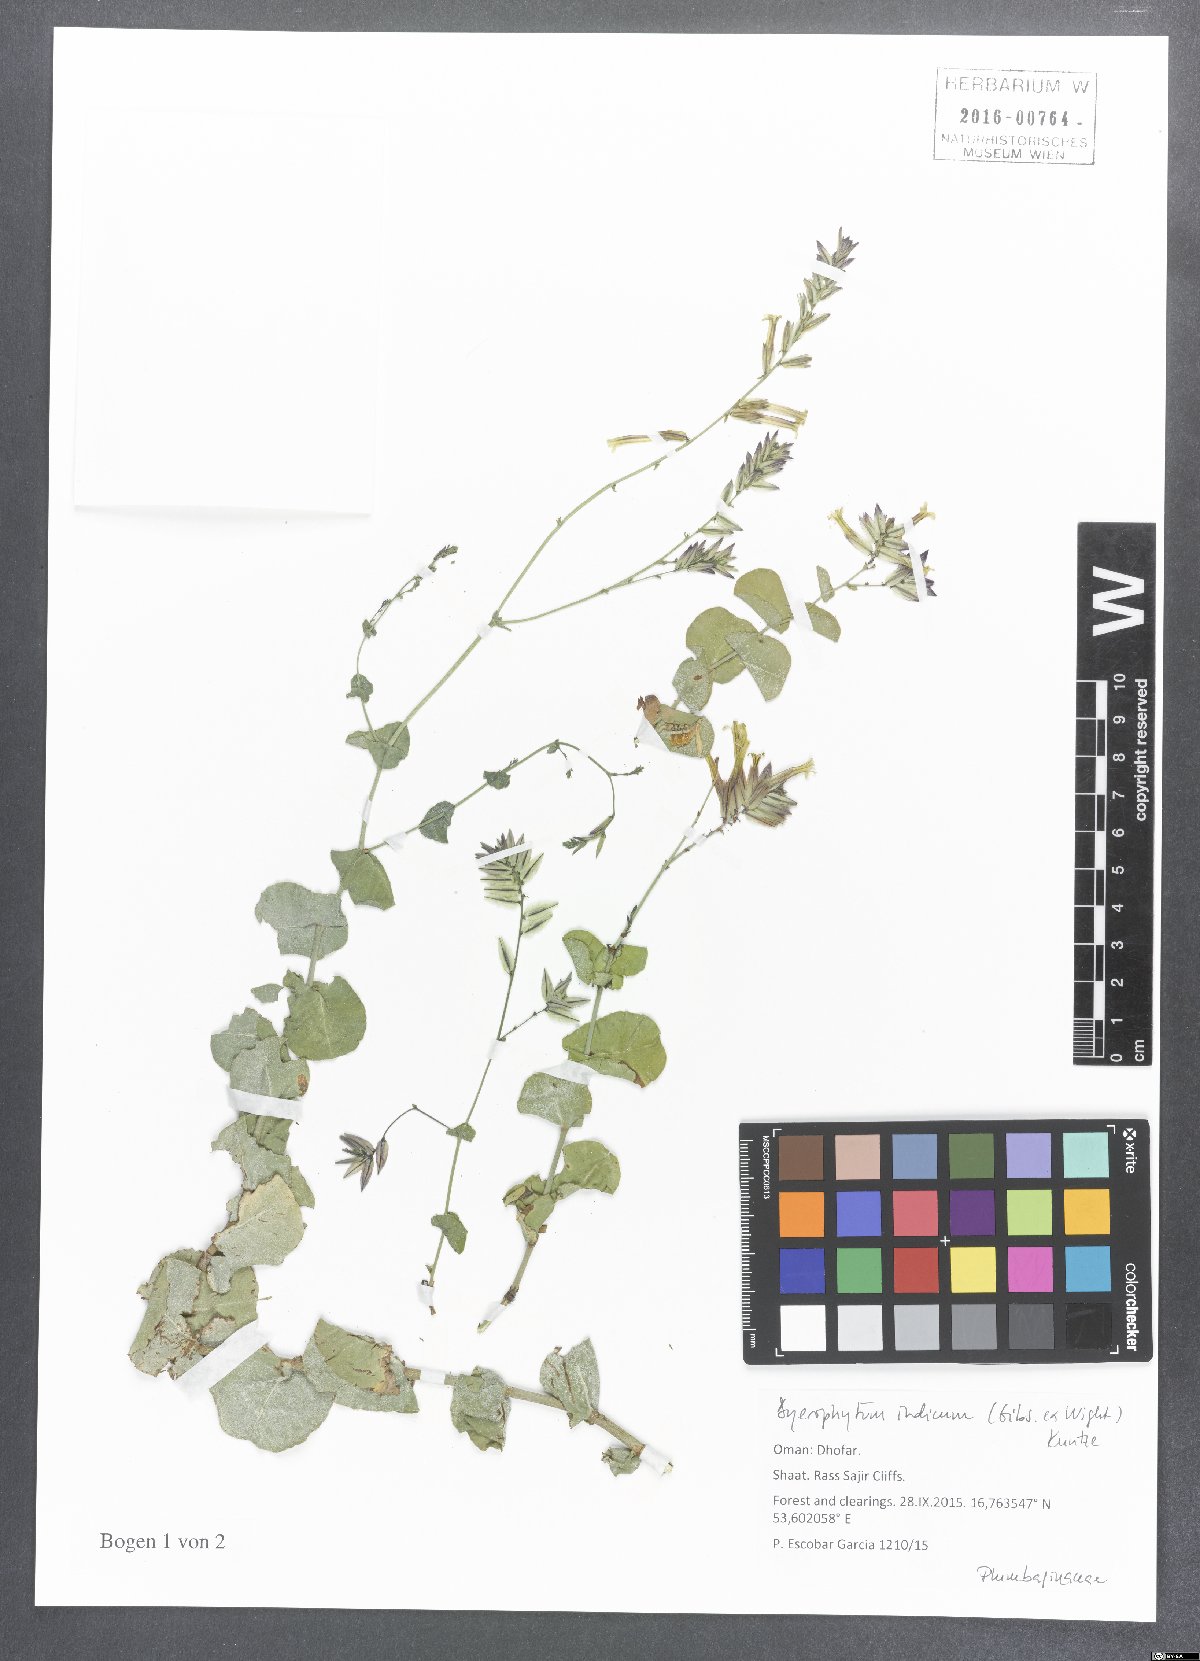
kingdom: Plantae
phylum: Tracheophyta
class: Magnoliopsida
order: Caryophyllales
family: Plumbaginaceae
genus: Dyerophytum
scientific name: Dyerophytum indicum
